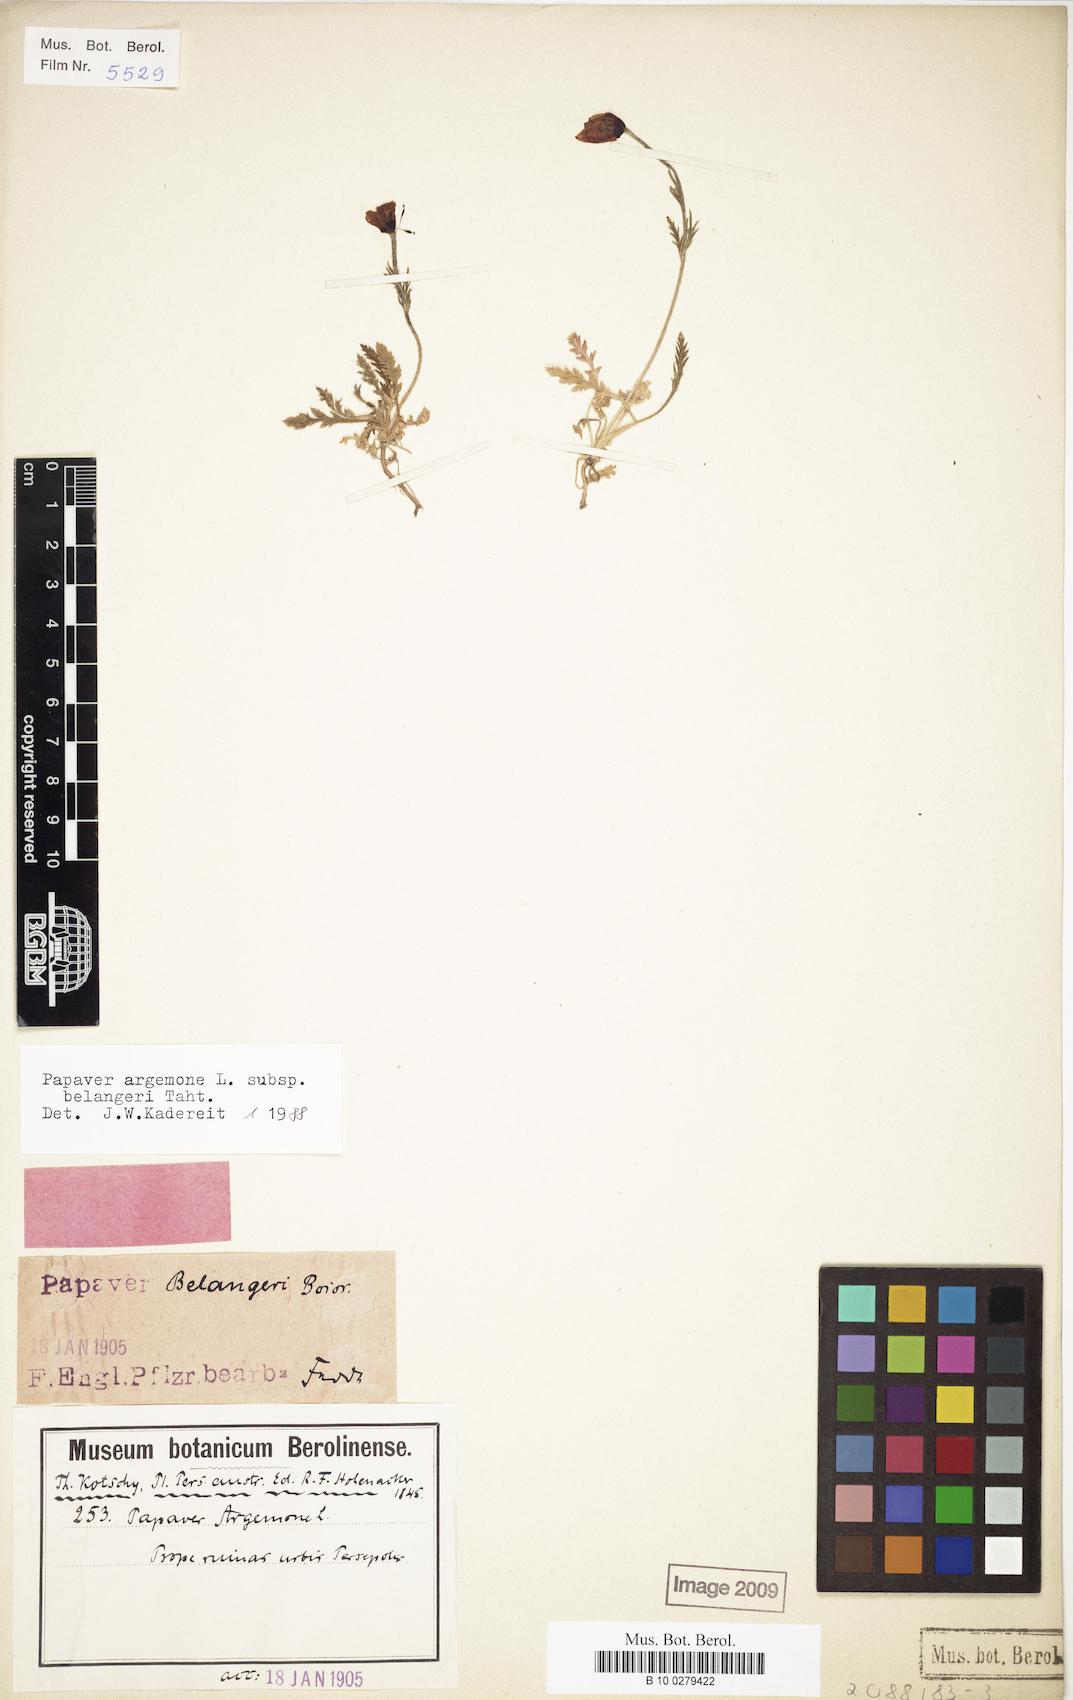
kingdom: Plantae
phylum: Tracheophyta
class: Magnoliopsida
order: Ranunculales
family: Papaveraceae
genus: Roemeria
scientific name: Roemeria minor
